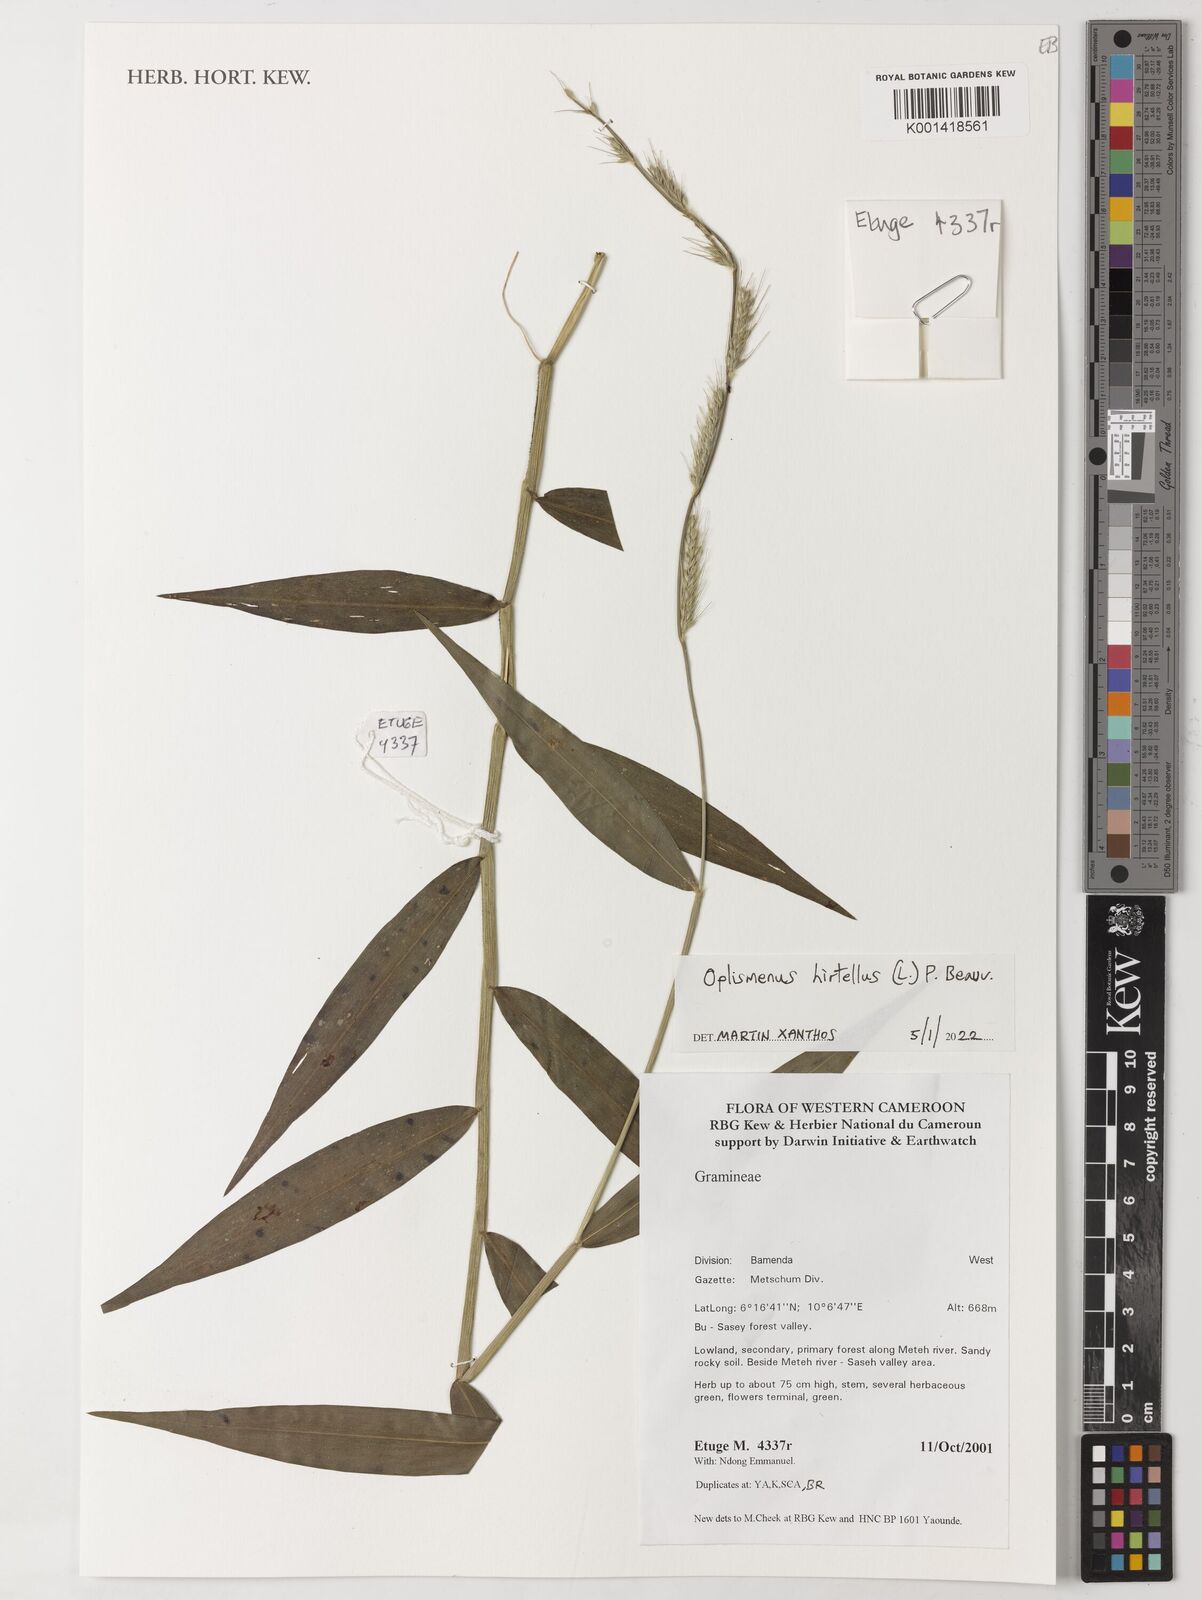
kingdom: Plantae
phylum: Tracheophyta
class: Liliopsida
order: Poales
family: Poaceae
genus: Oplismenus
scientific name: Oplismenus hirtellus
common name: Basketgrass
